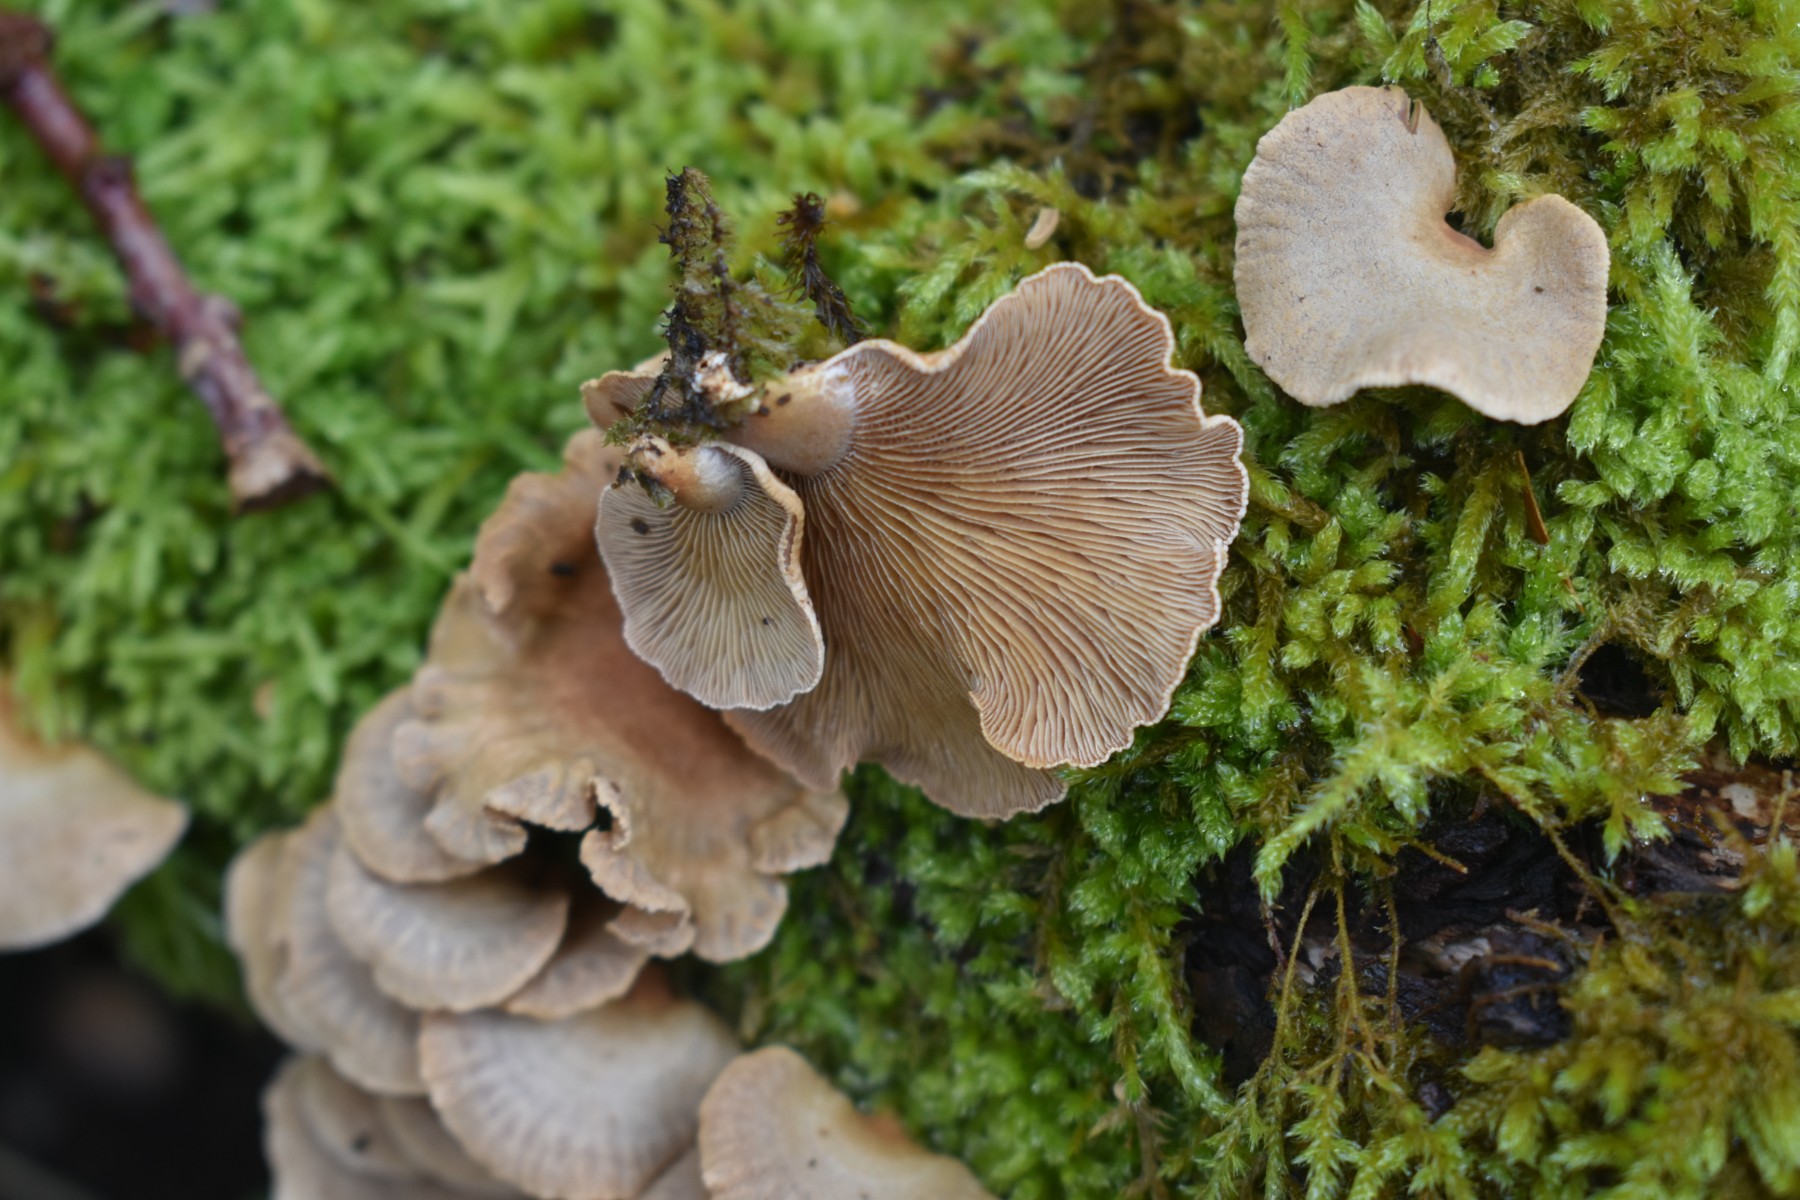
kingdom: Fungi
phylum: Basidiomycota
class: Agaricomycetes
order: Agaricales
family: Mycenaceae
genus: Panellus
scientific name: Panellus stipticus
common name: kliddet epaulethat
